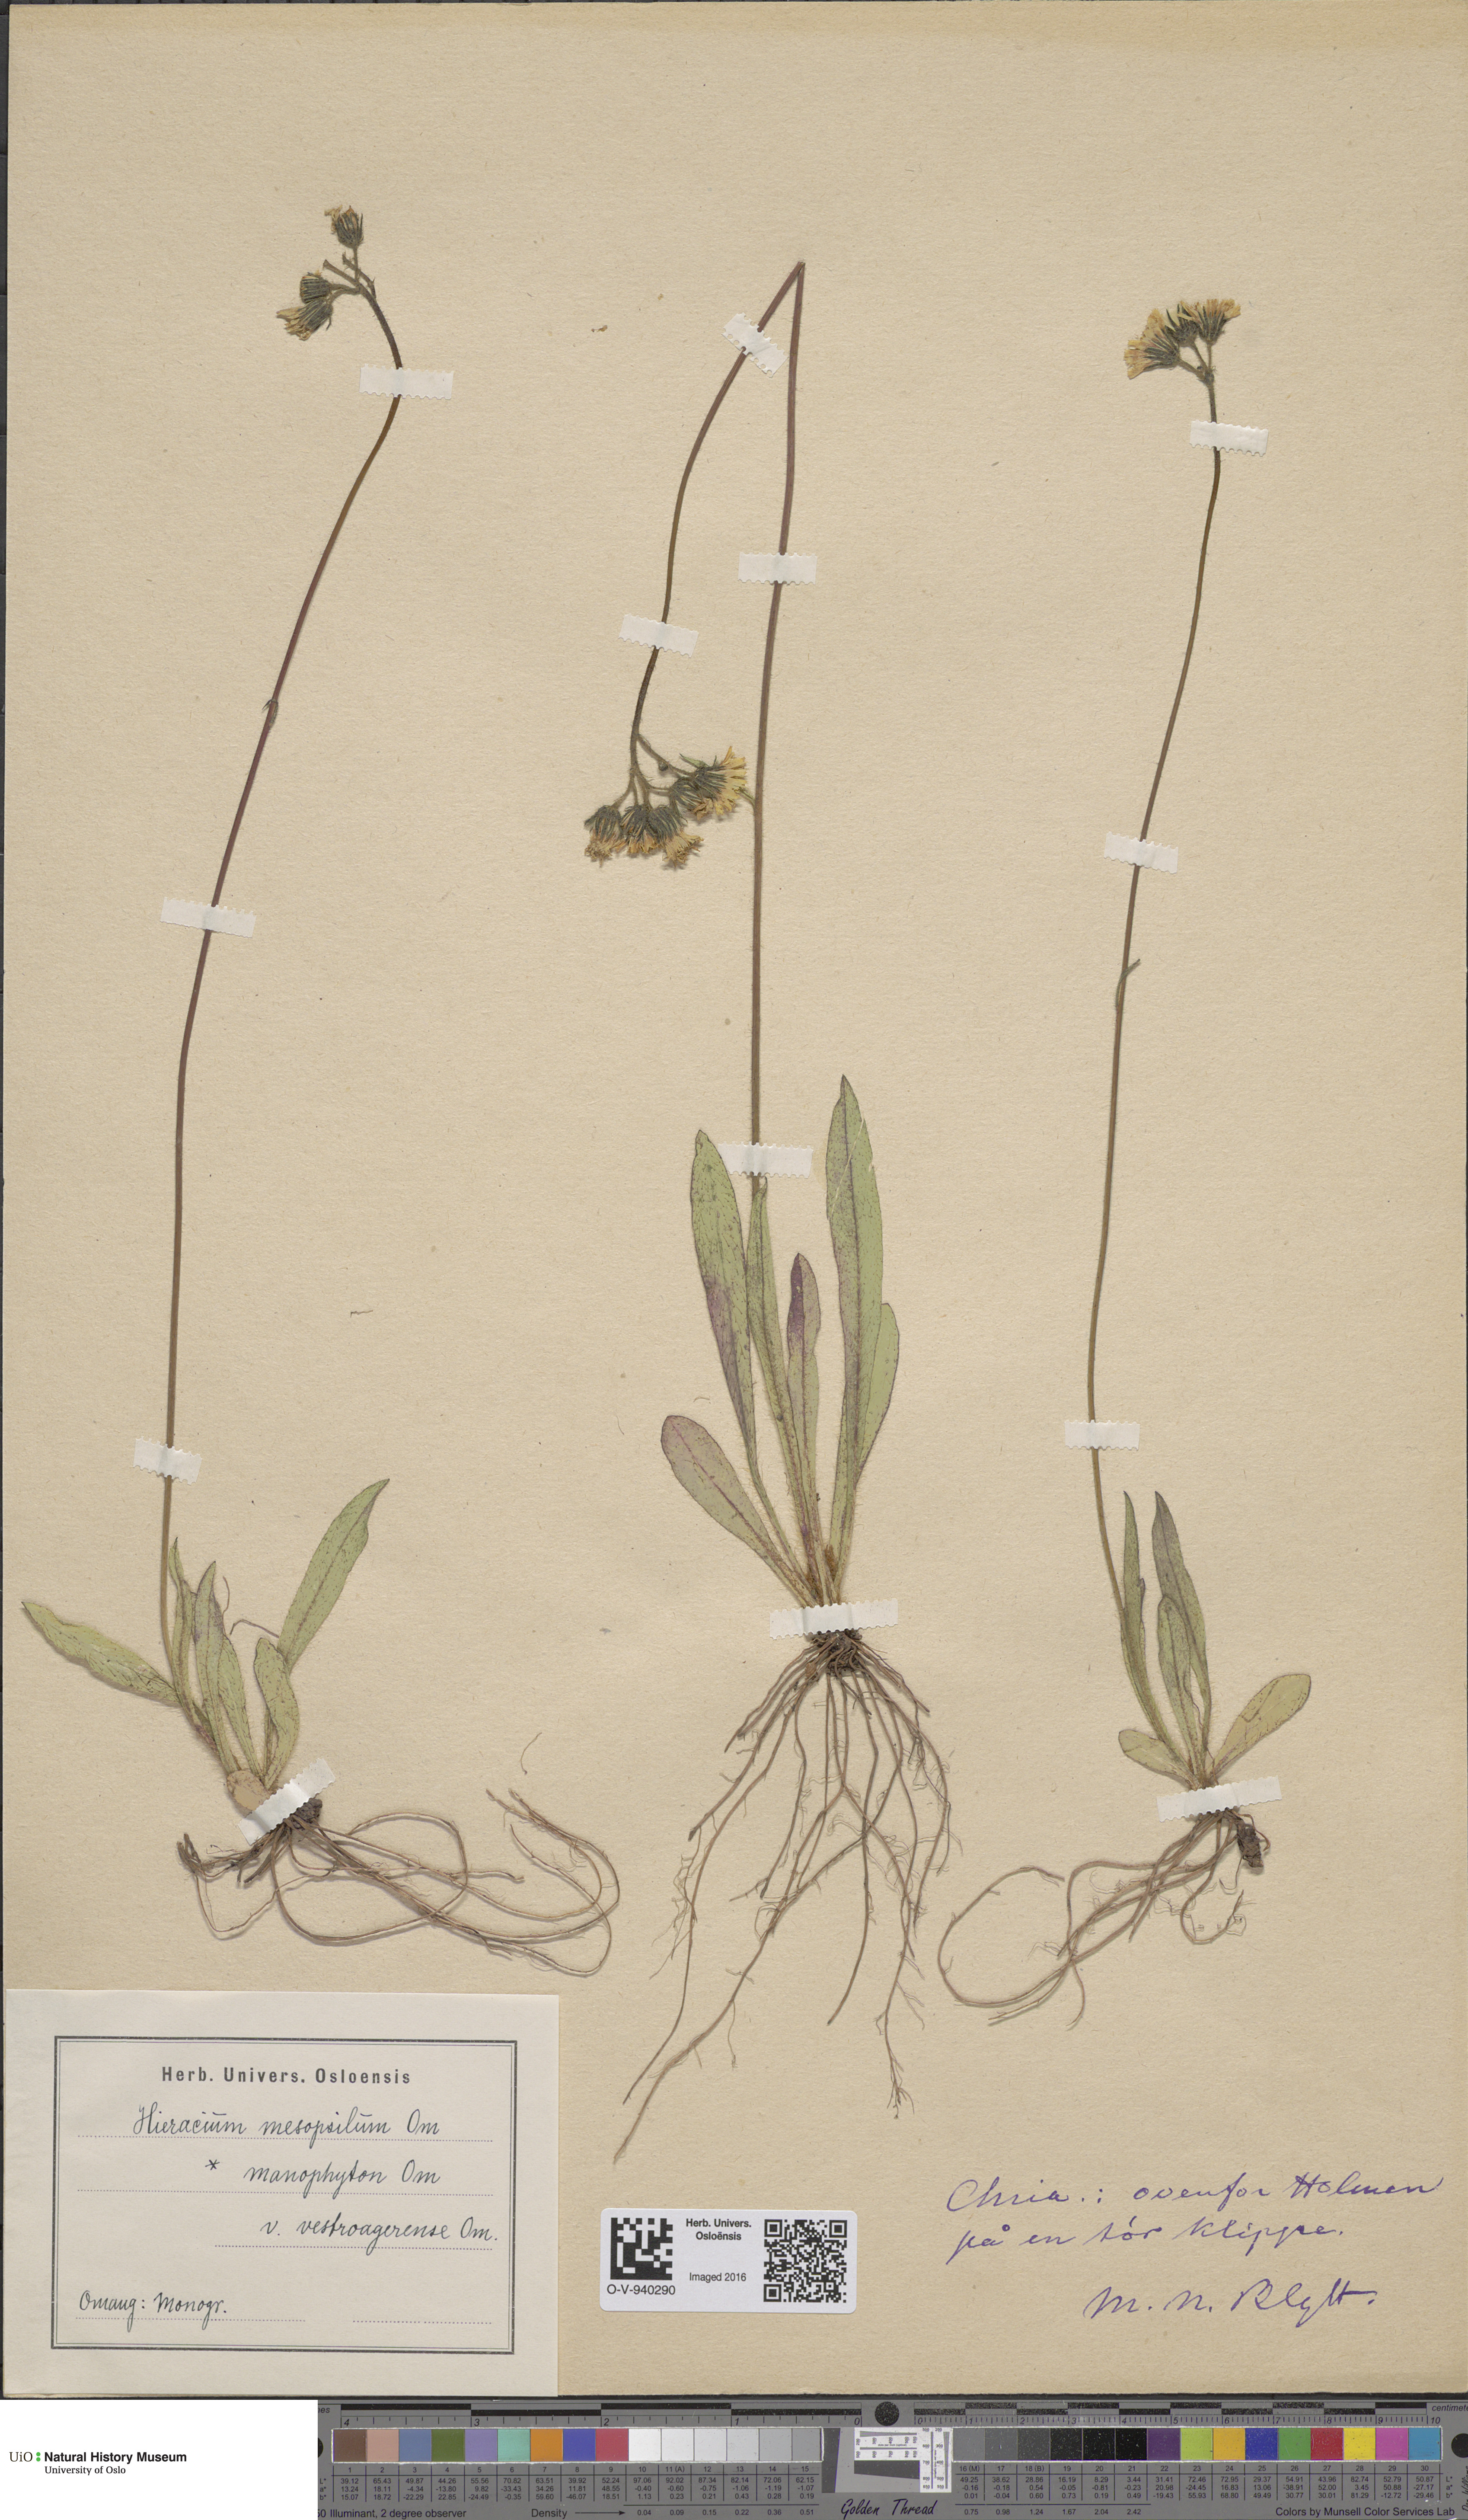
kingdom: Plantae
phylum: Tracheophyta
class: Magnoliopsida
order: Asterales
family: Asteraceae
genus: Pilosella
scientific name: Pilosella dubia
